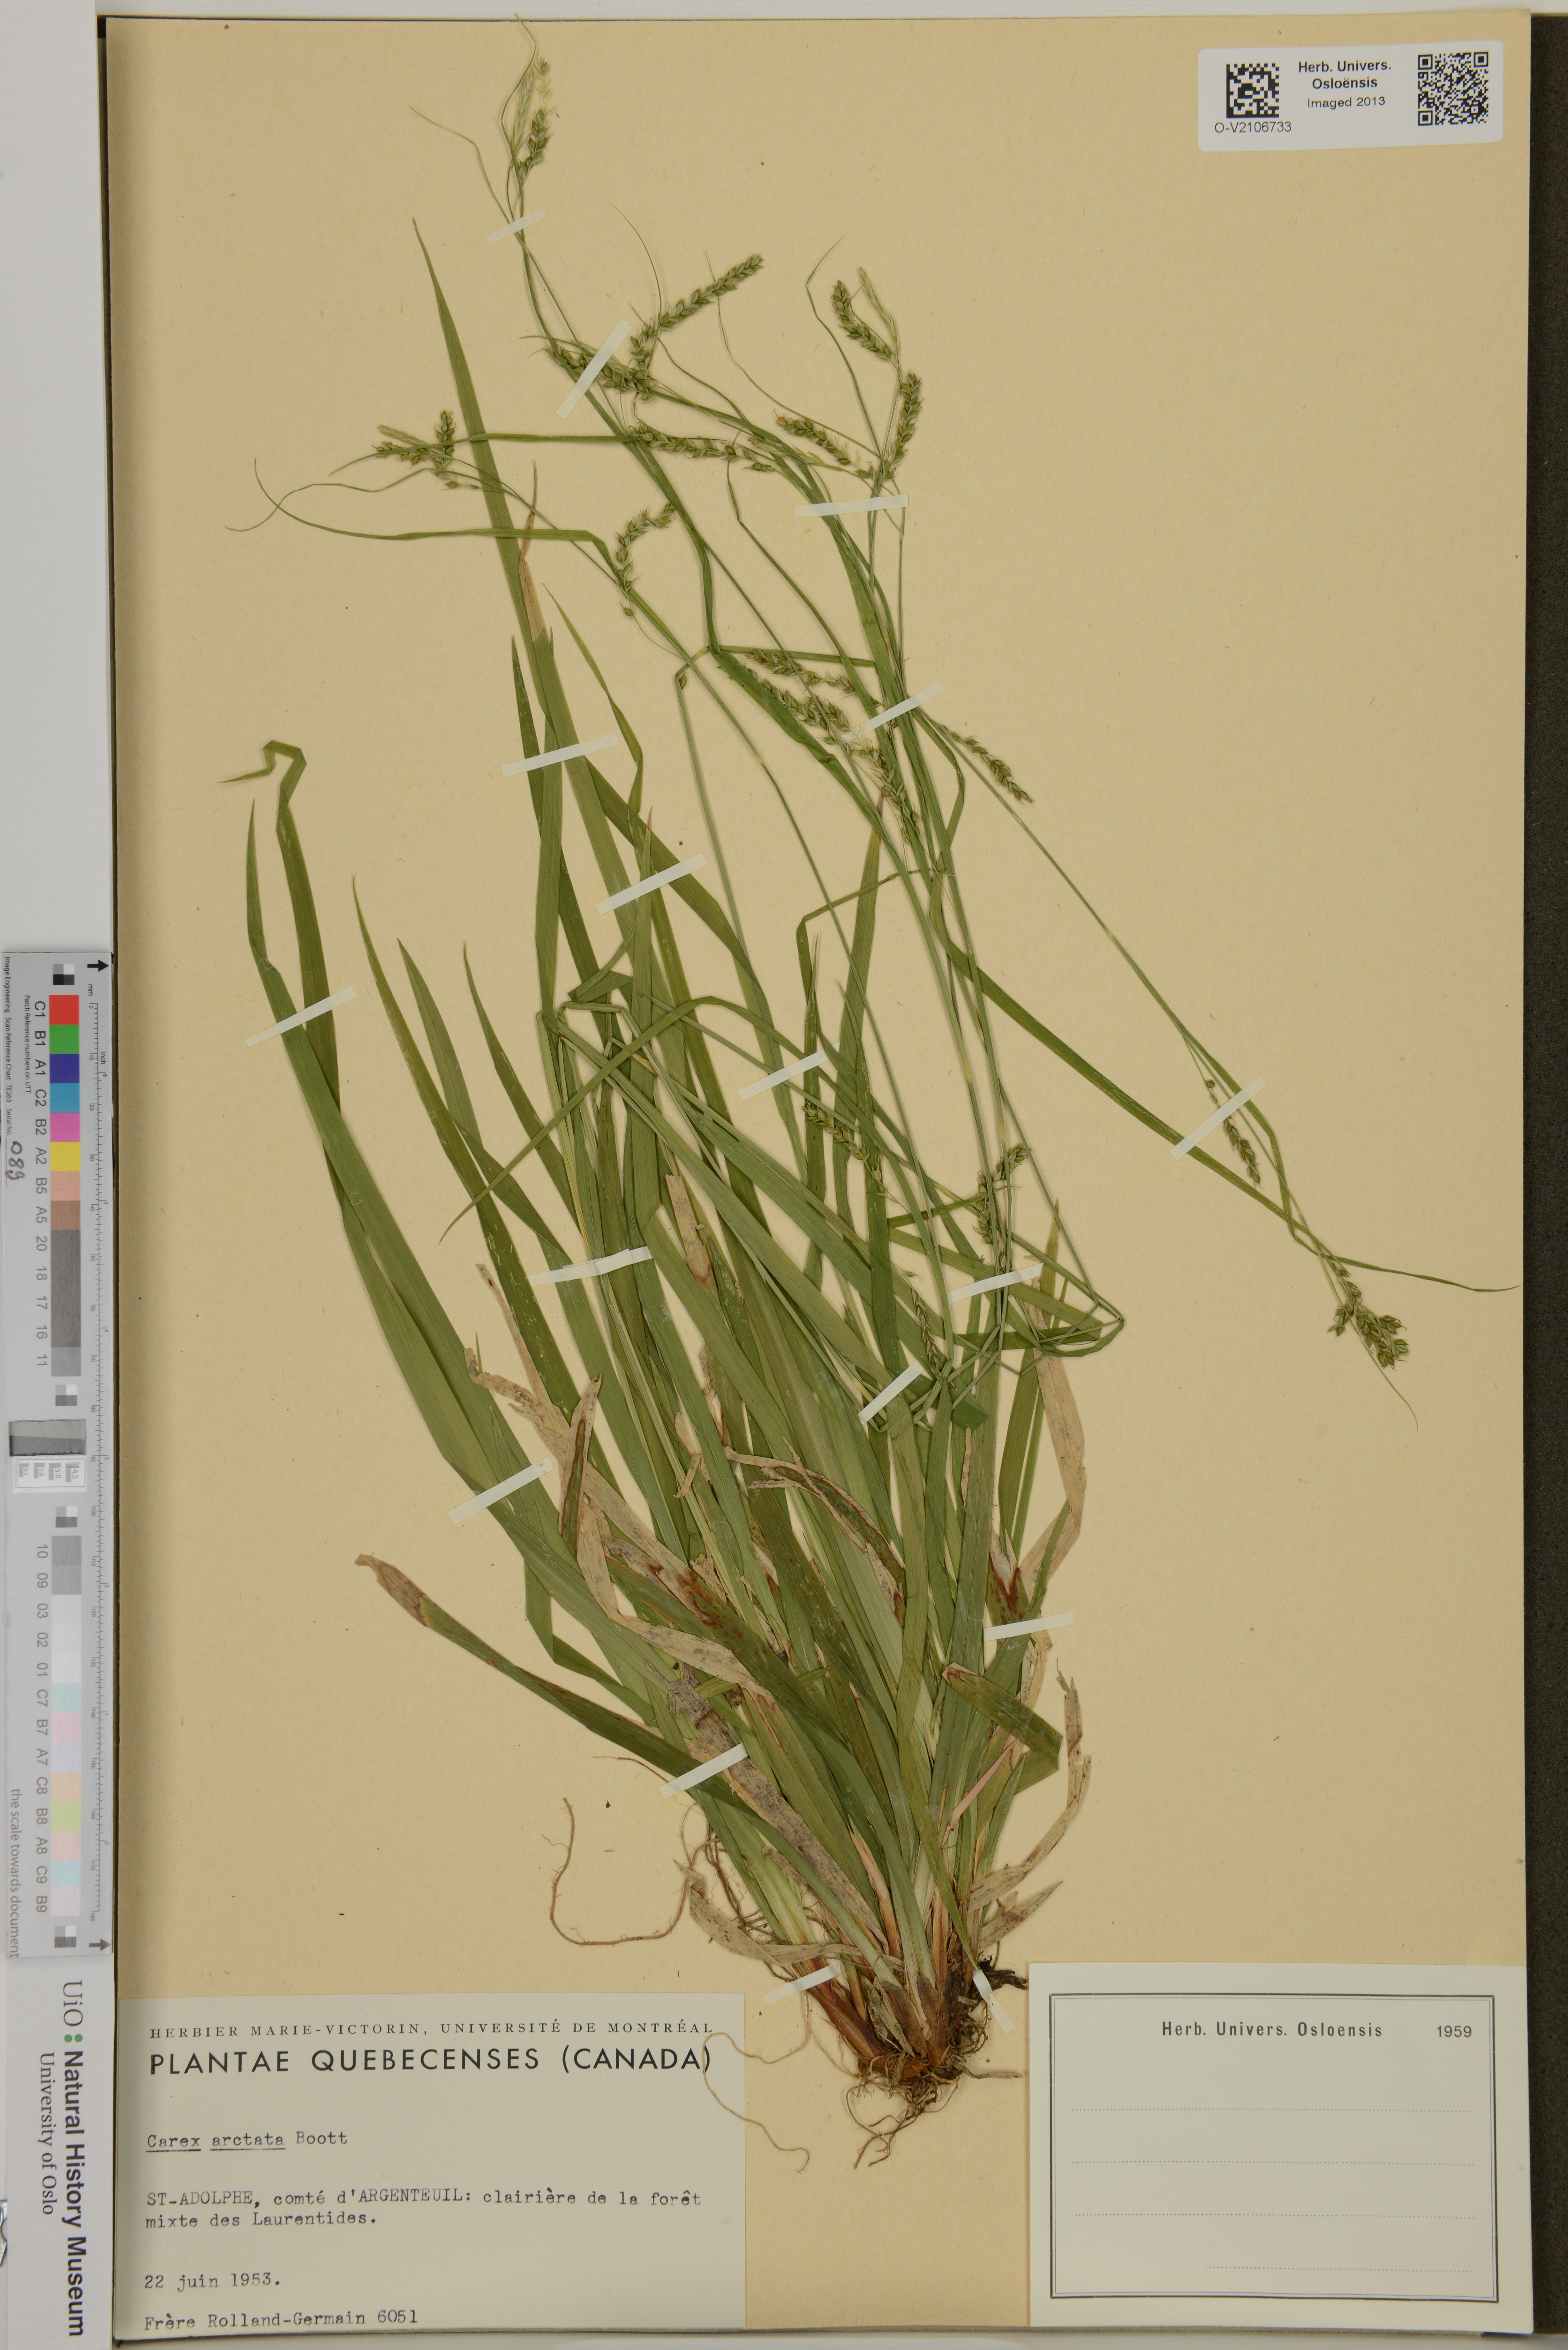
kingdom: Plantae
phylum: Tracheophyta
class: Liliopsida
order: Poales
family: Cyperaceae
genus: Carex
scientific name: Carex arctata
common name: Black sedge
